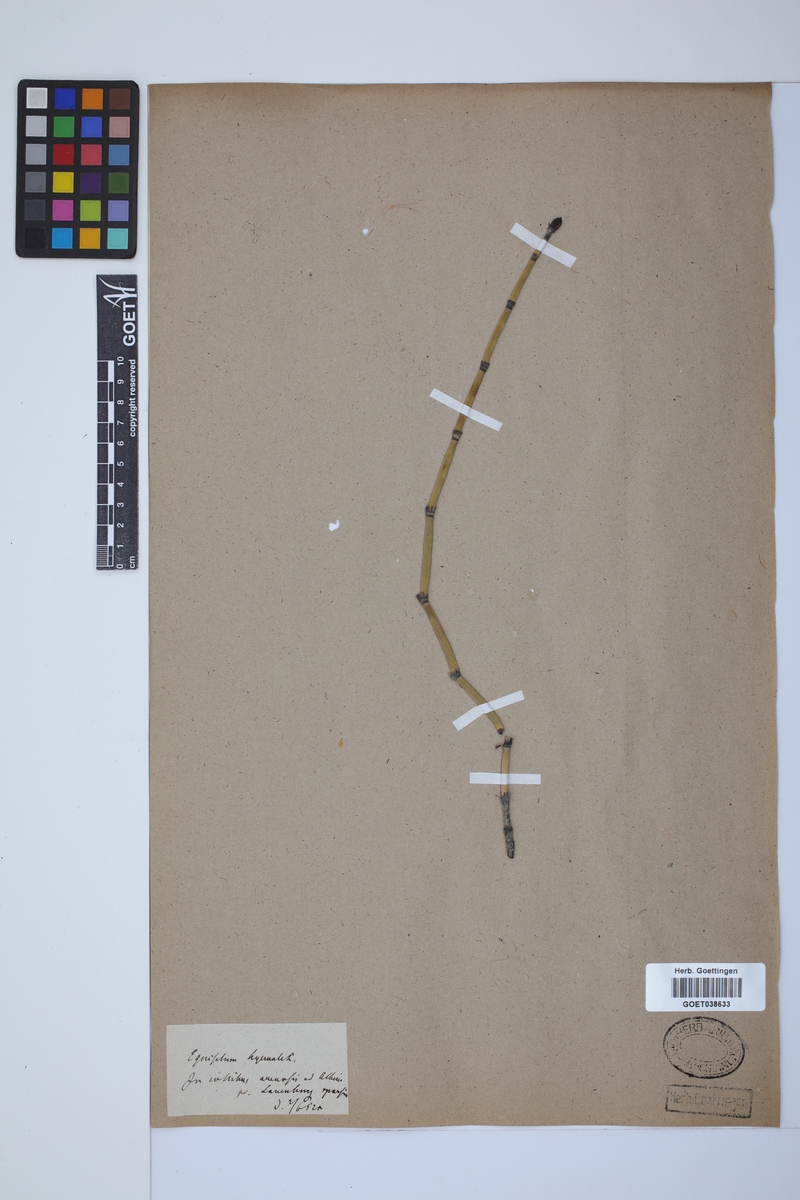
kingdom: Plantae
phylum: Tracheophyta
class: Polypodiopsida
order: Equisetales
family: Equisetaceae
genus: Equisetum
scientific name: Equisetum hyemale
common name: Rough horsetail
